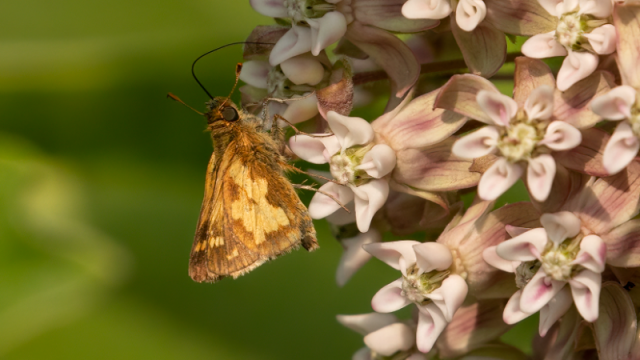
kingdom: Animalia
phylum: Arthropoda
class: Insecta
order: Lepidoptera
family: Hesperiidae
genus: Lon
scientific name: Lon hobomok
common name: Hobomok Skipper
